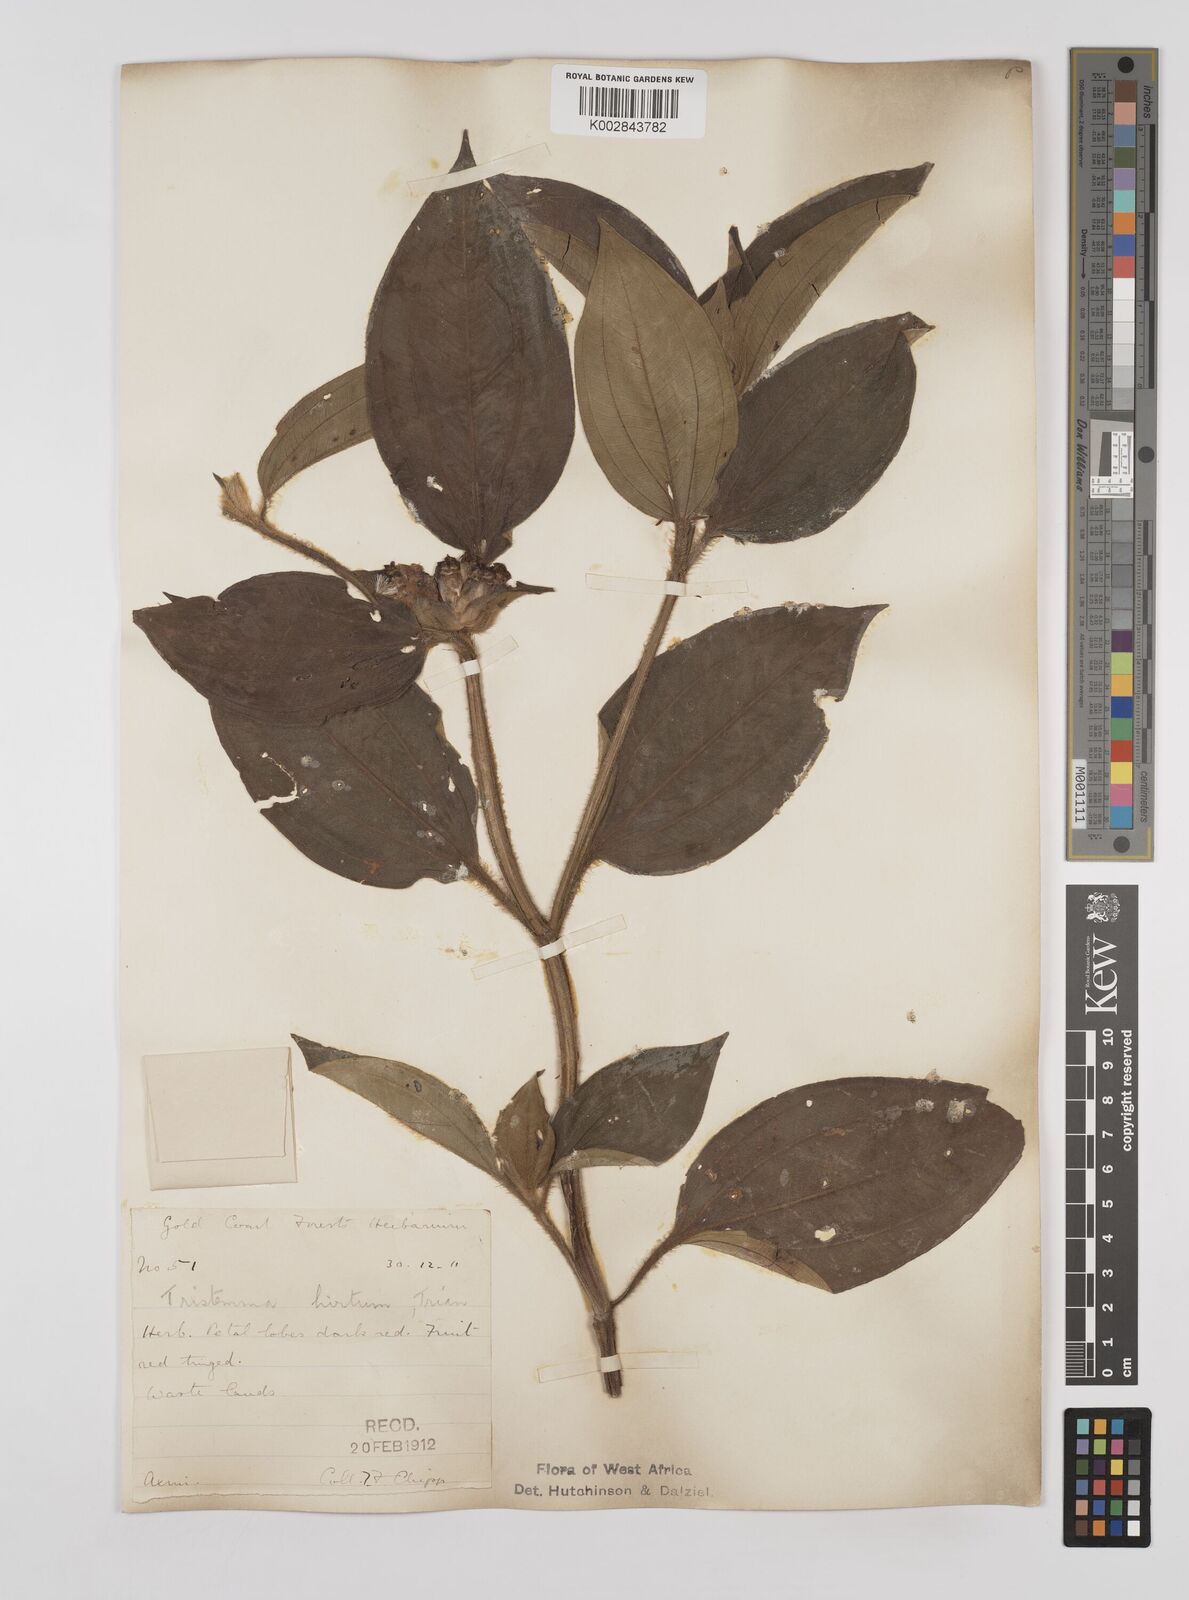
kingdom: Plantae
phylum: Tracheophyta
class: Magnoliopsida
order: Myrtales
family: Melastomataceae
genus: Tristemma
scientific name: Tristemma
